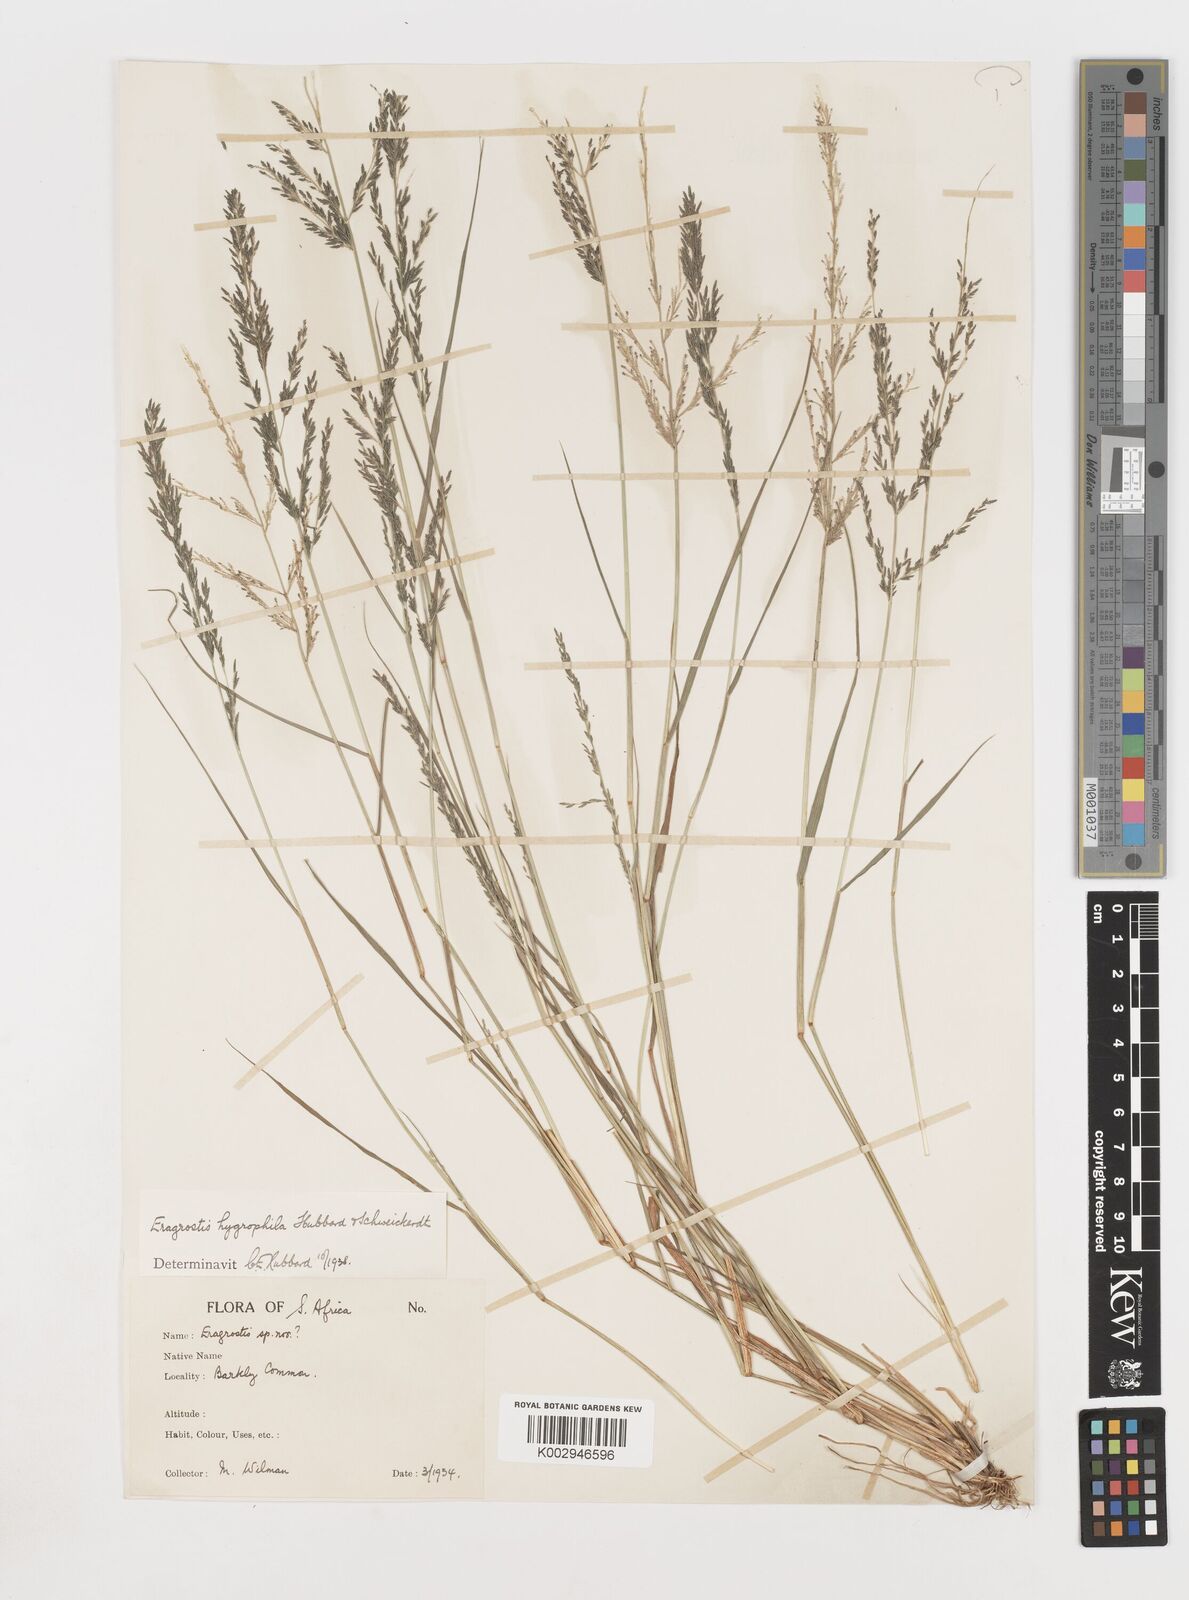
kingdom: Plantae
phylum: Tracheophyta
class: Liliopsida
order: Poales
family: Poaceae
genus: Eragrostis
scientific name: Eragrostis homomalla
